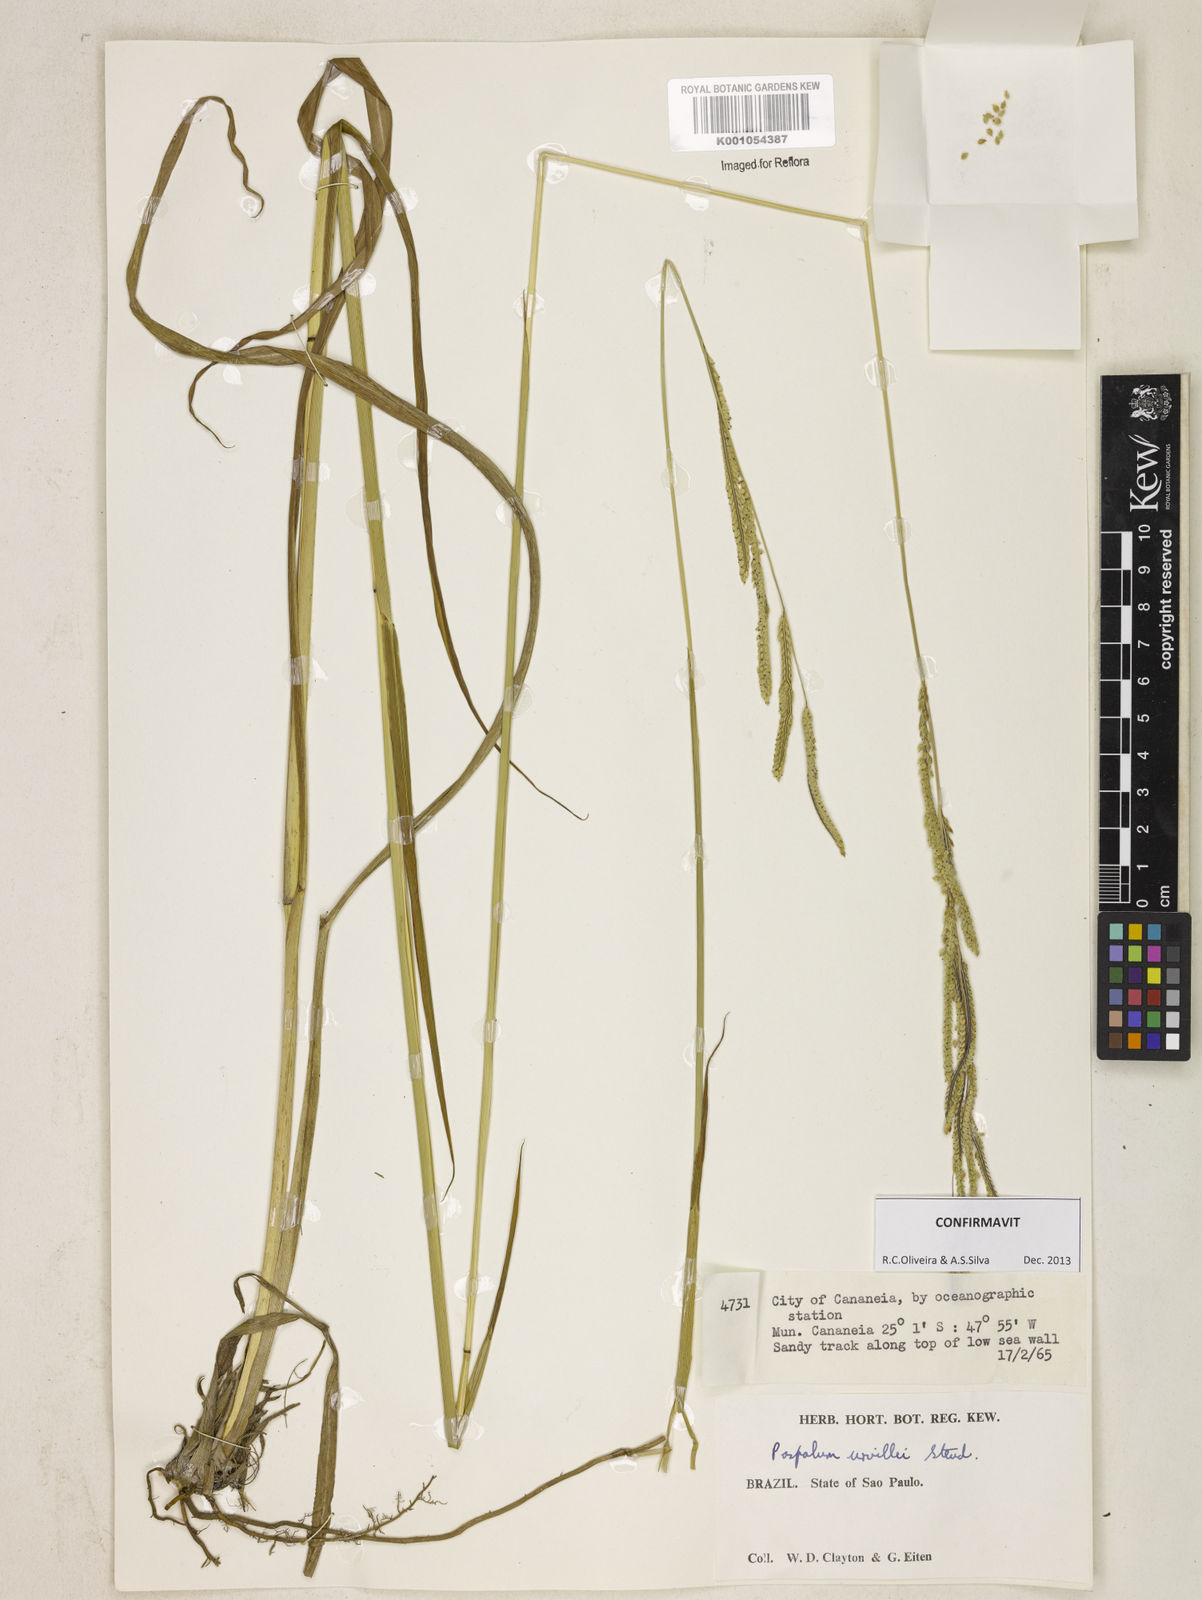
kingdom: Plantae
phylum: Tracheophyta
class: Liliopsida
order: Poales
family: Poaceae
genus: Paspalum
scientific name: Paspalum urvillei
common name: Vasey's grass
